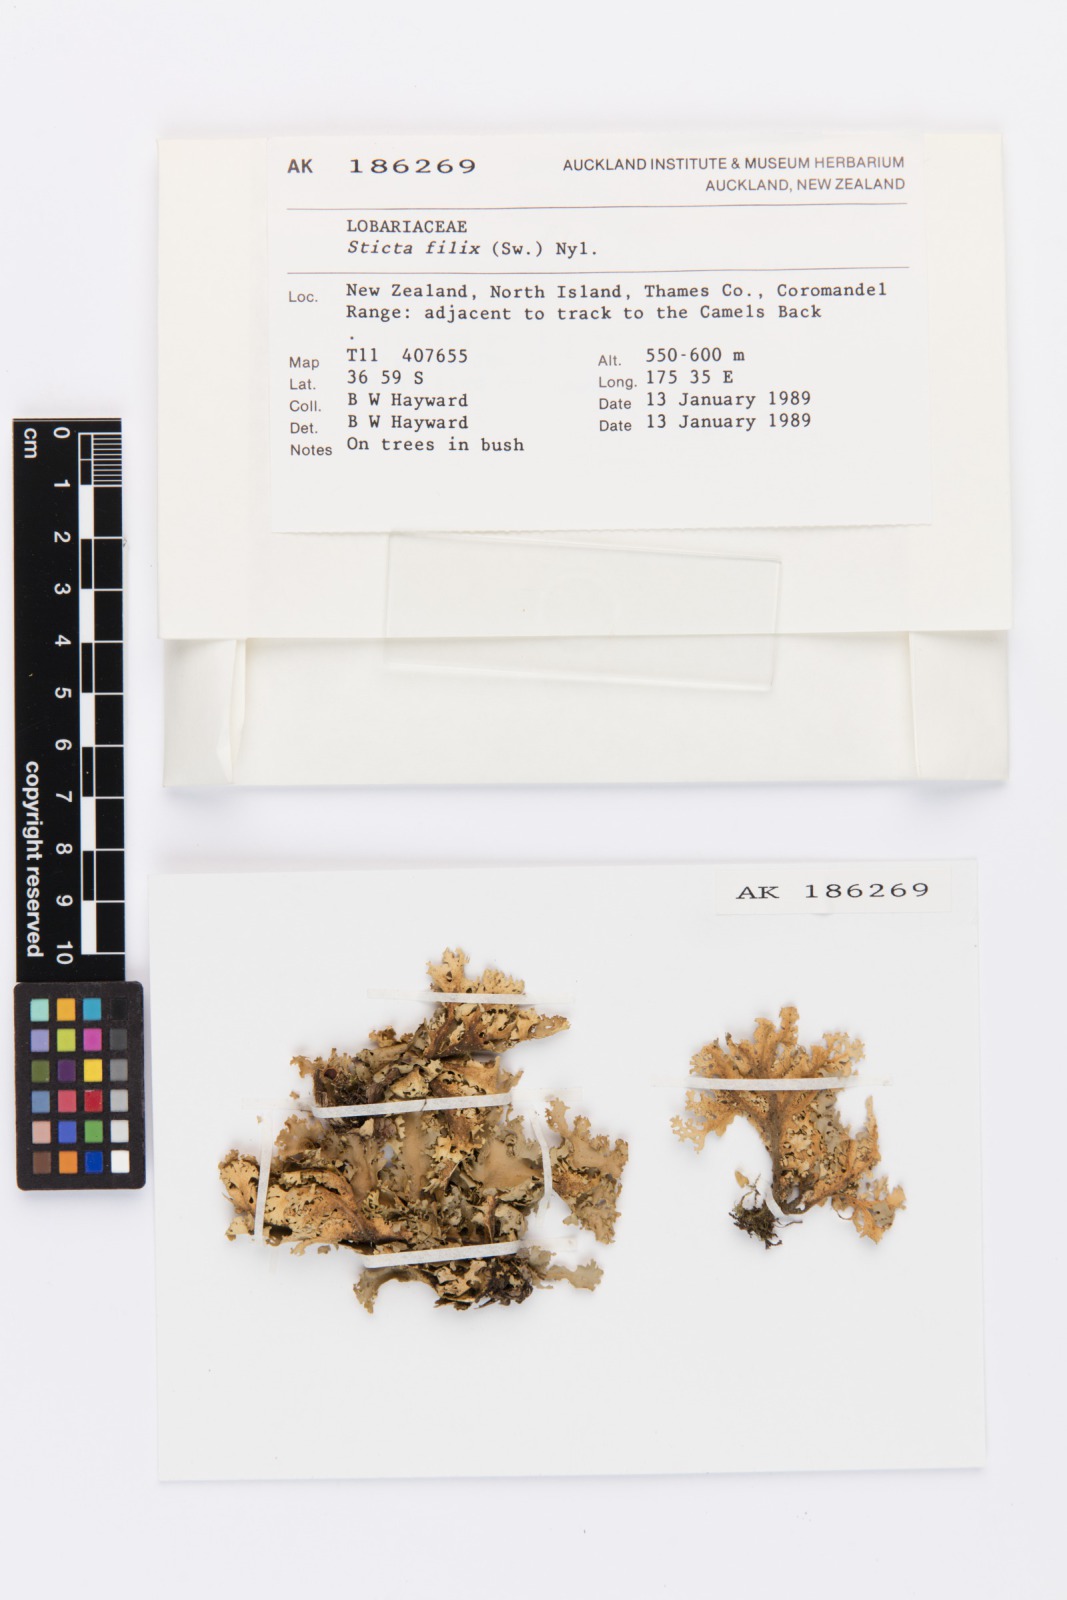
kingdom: Fungi
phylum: Ascomycota
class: Lecanoromycetes
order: Peltigerales
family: Lobariaceae
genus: Sticta
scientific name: Sticta filix
